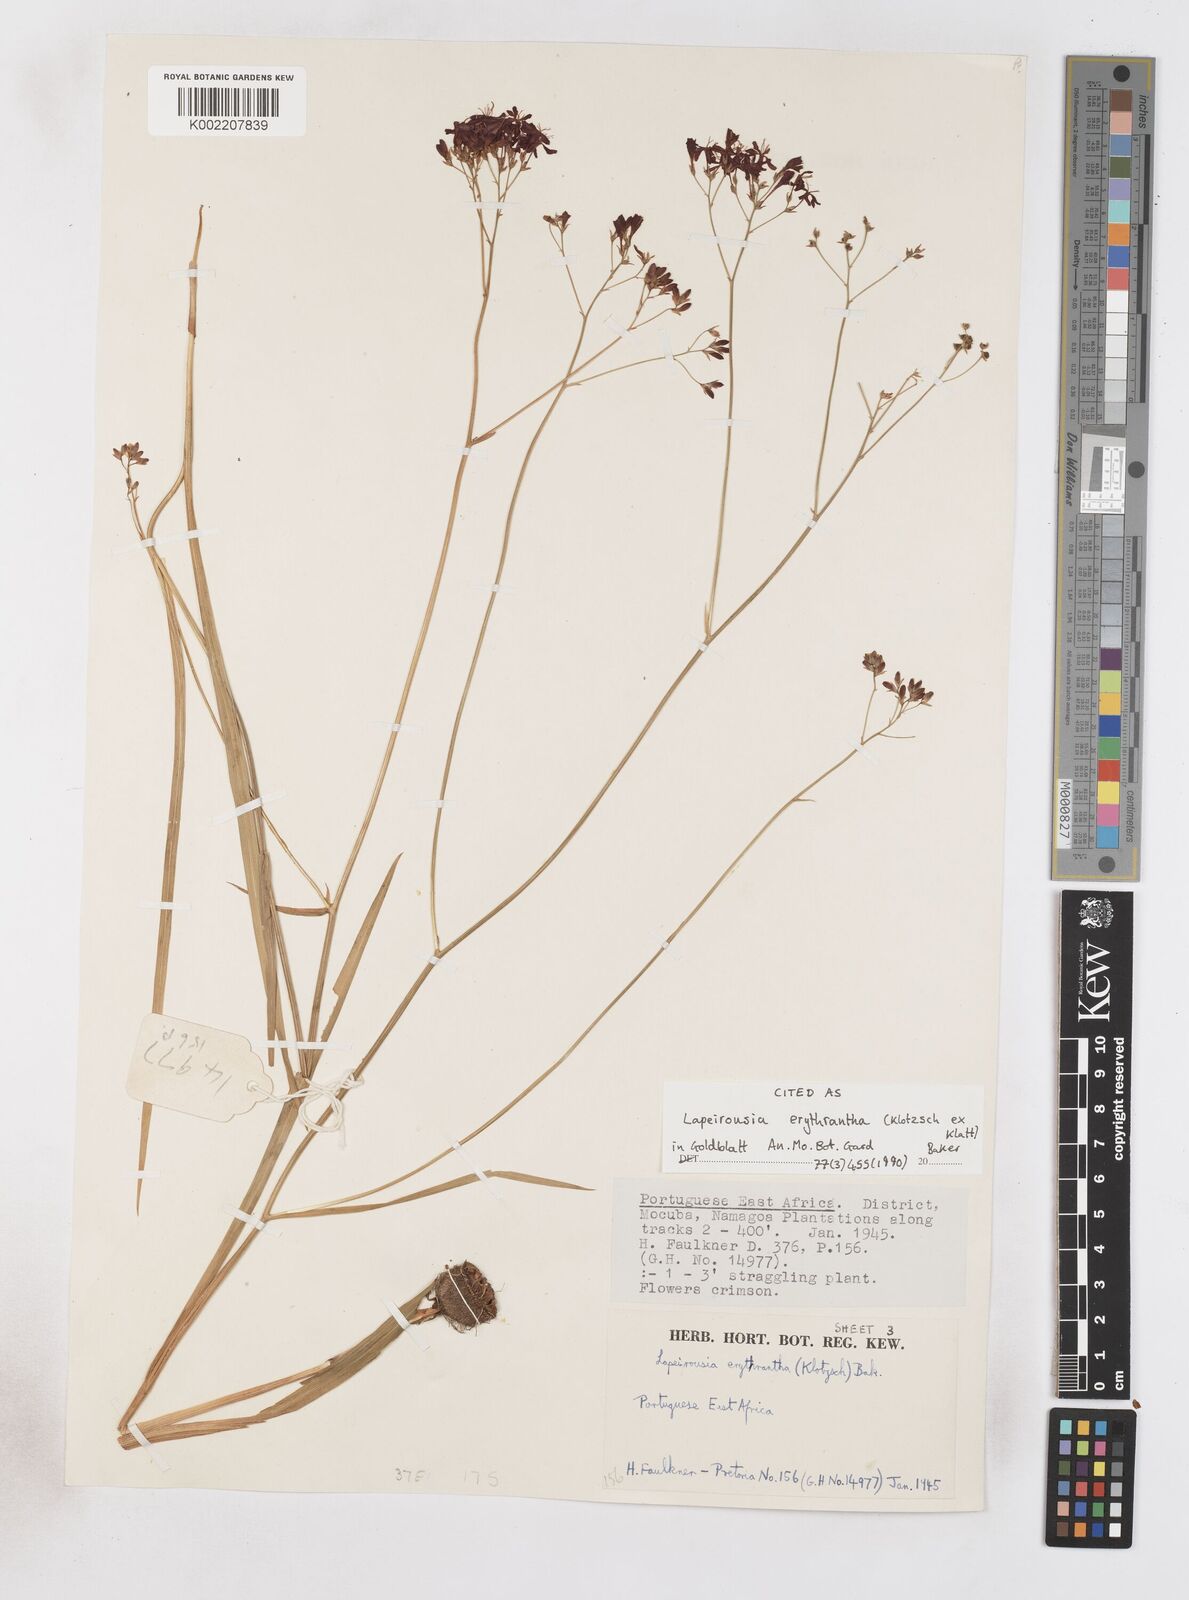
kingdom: Plantae
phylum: Tracheophyta
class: Liliopsida
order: Asparagales
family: Iridaceae
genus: Afrosolen
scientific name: Afrosolen erythranthus
